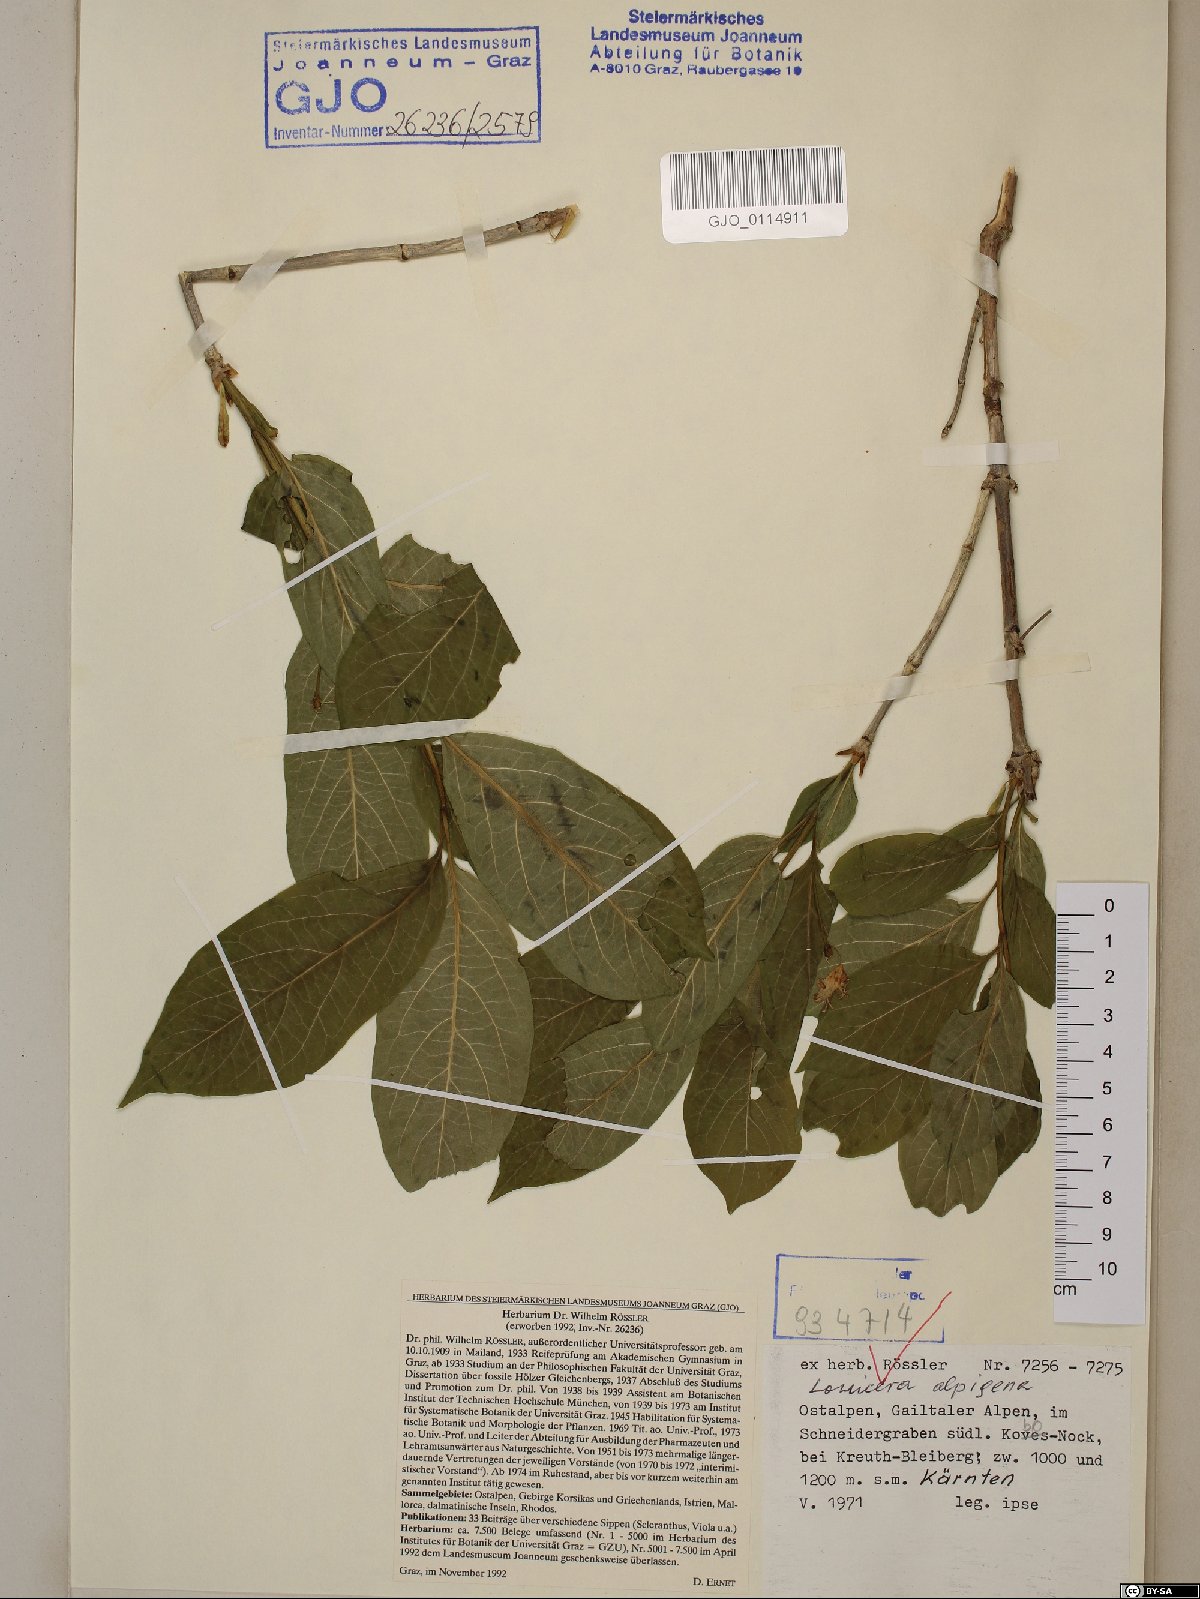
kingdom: Plantae
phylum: Tracheophyta
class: Magnoliopsida
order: Dipsacales
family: Caprifoliaceae
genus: Lonicera
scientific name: Lonicera alpigena
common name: Alpine honeysuckle
